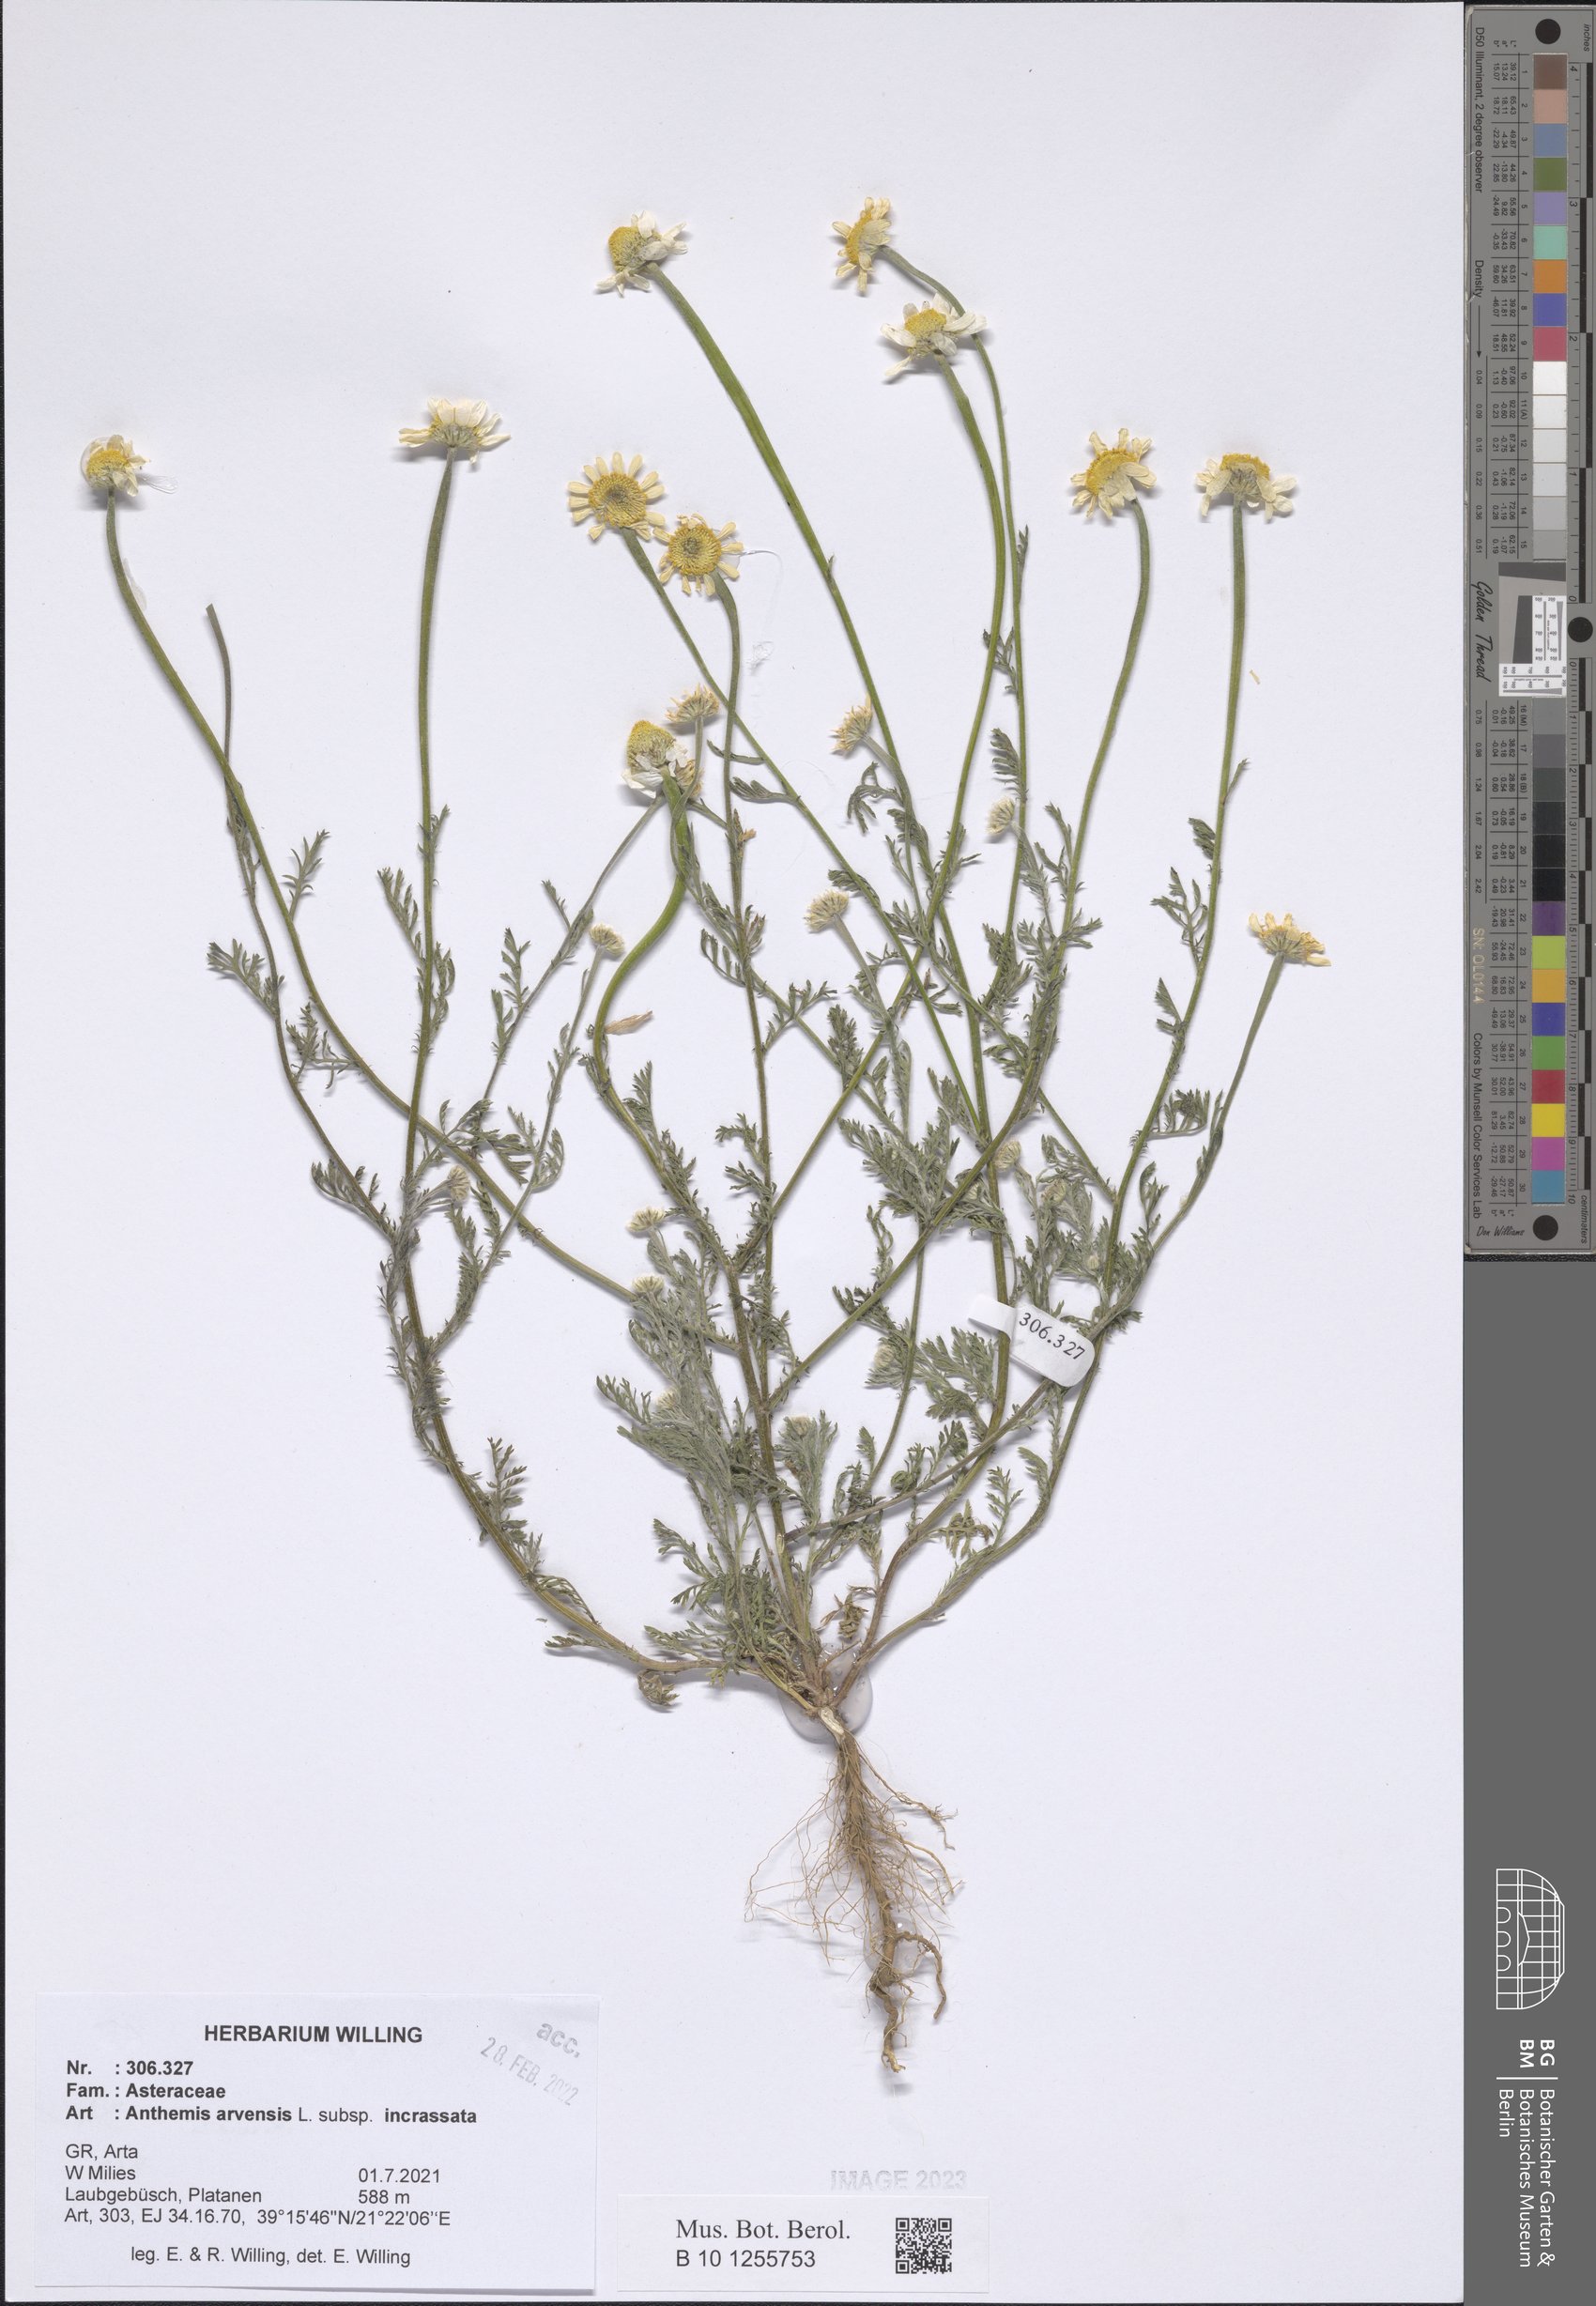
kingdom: Plantae
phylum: Tracheophyta
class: Magnoliopsida
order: Asterales
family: Asteraceae
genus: Anthemis
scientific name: Anthemis arvensis
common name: Corn chamomile
